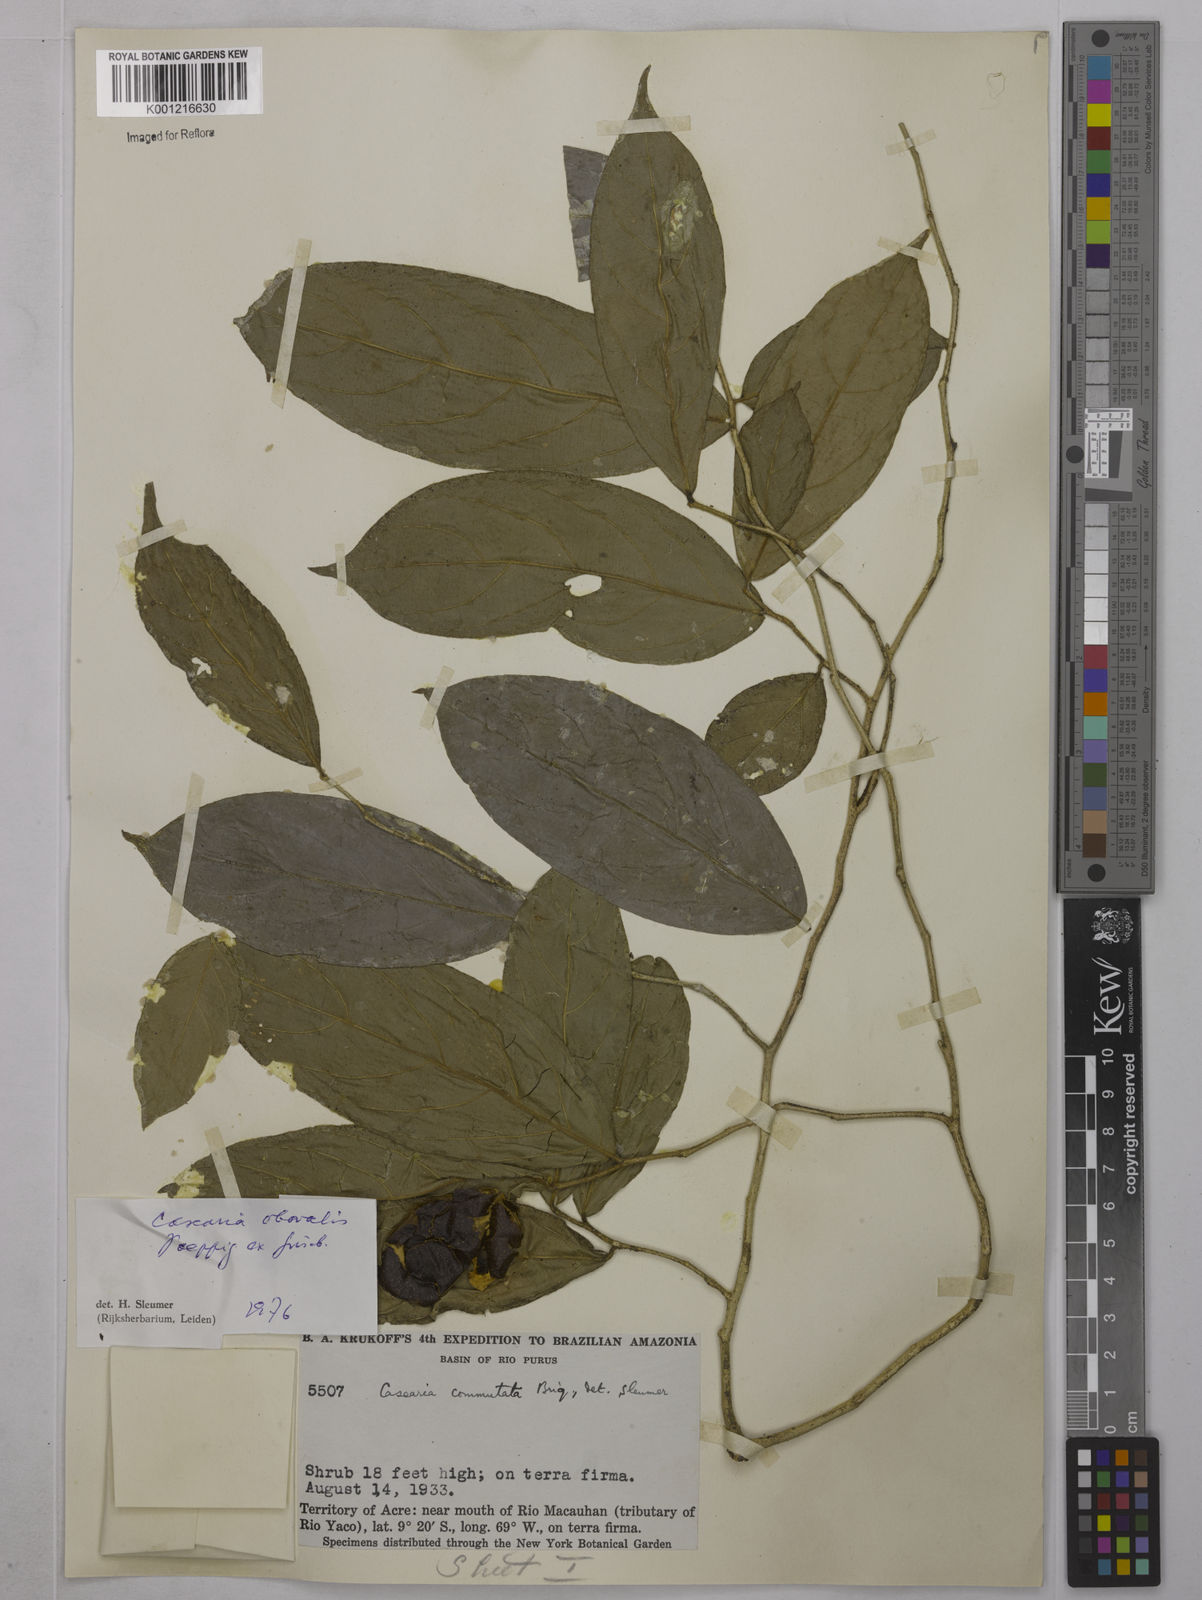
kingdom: Plantae
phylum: Tracheophyta
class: Magnoliopsida
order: Malpighiales
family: Salicaceae
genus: Casearia
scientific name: Casearia obovalis
